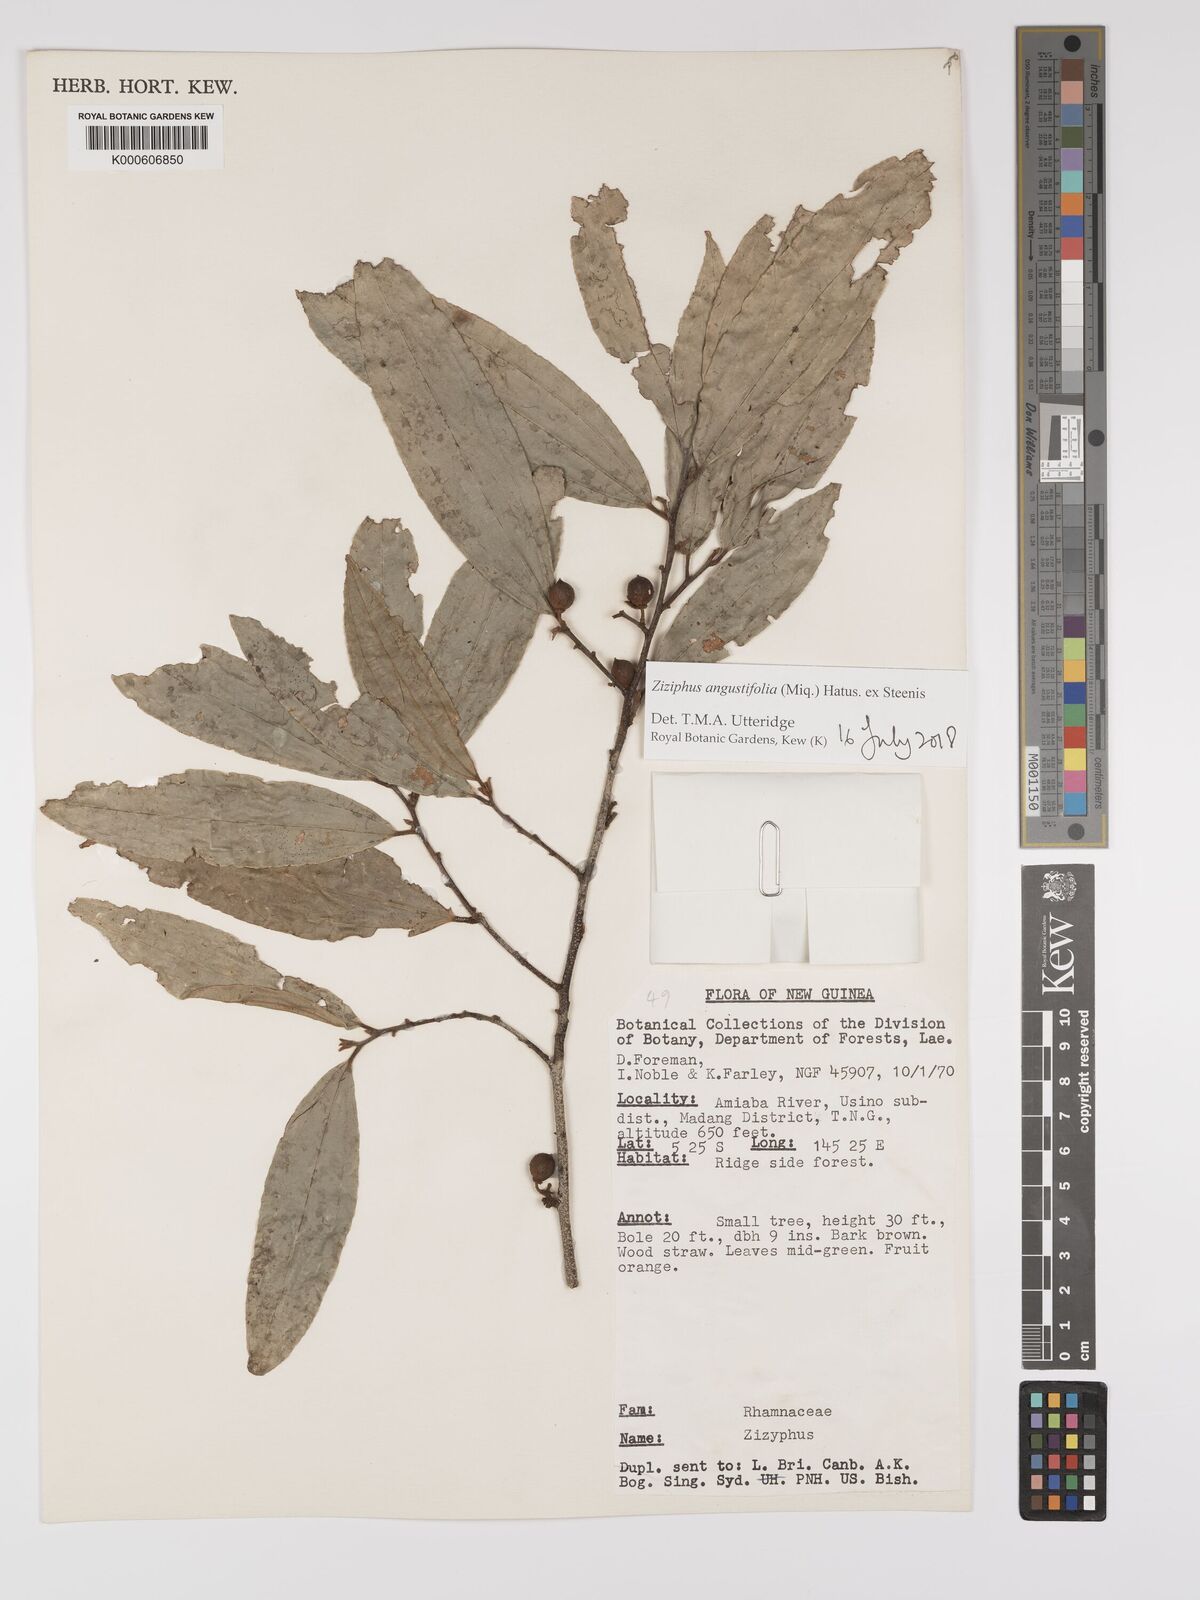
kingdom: Plantae
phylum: Tracheophyta
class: Magnoliopsida
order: Rosales
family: Rhamnaceae
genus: Ziziphus
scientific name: Ziziphus angustifolia
